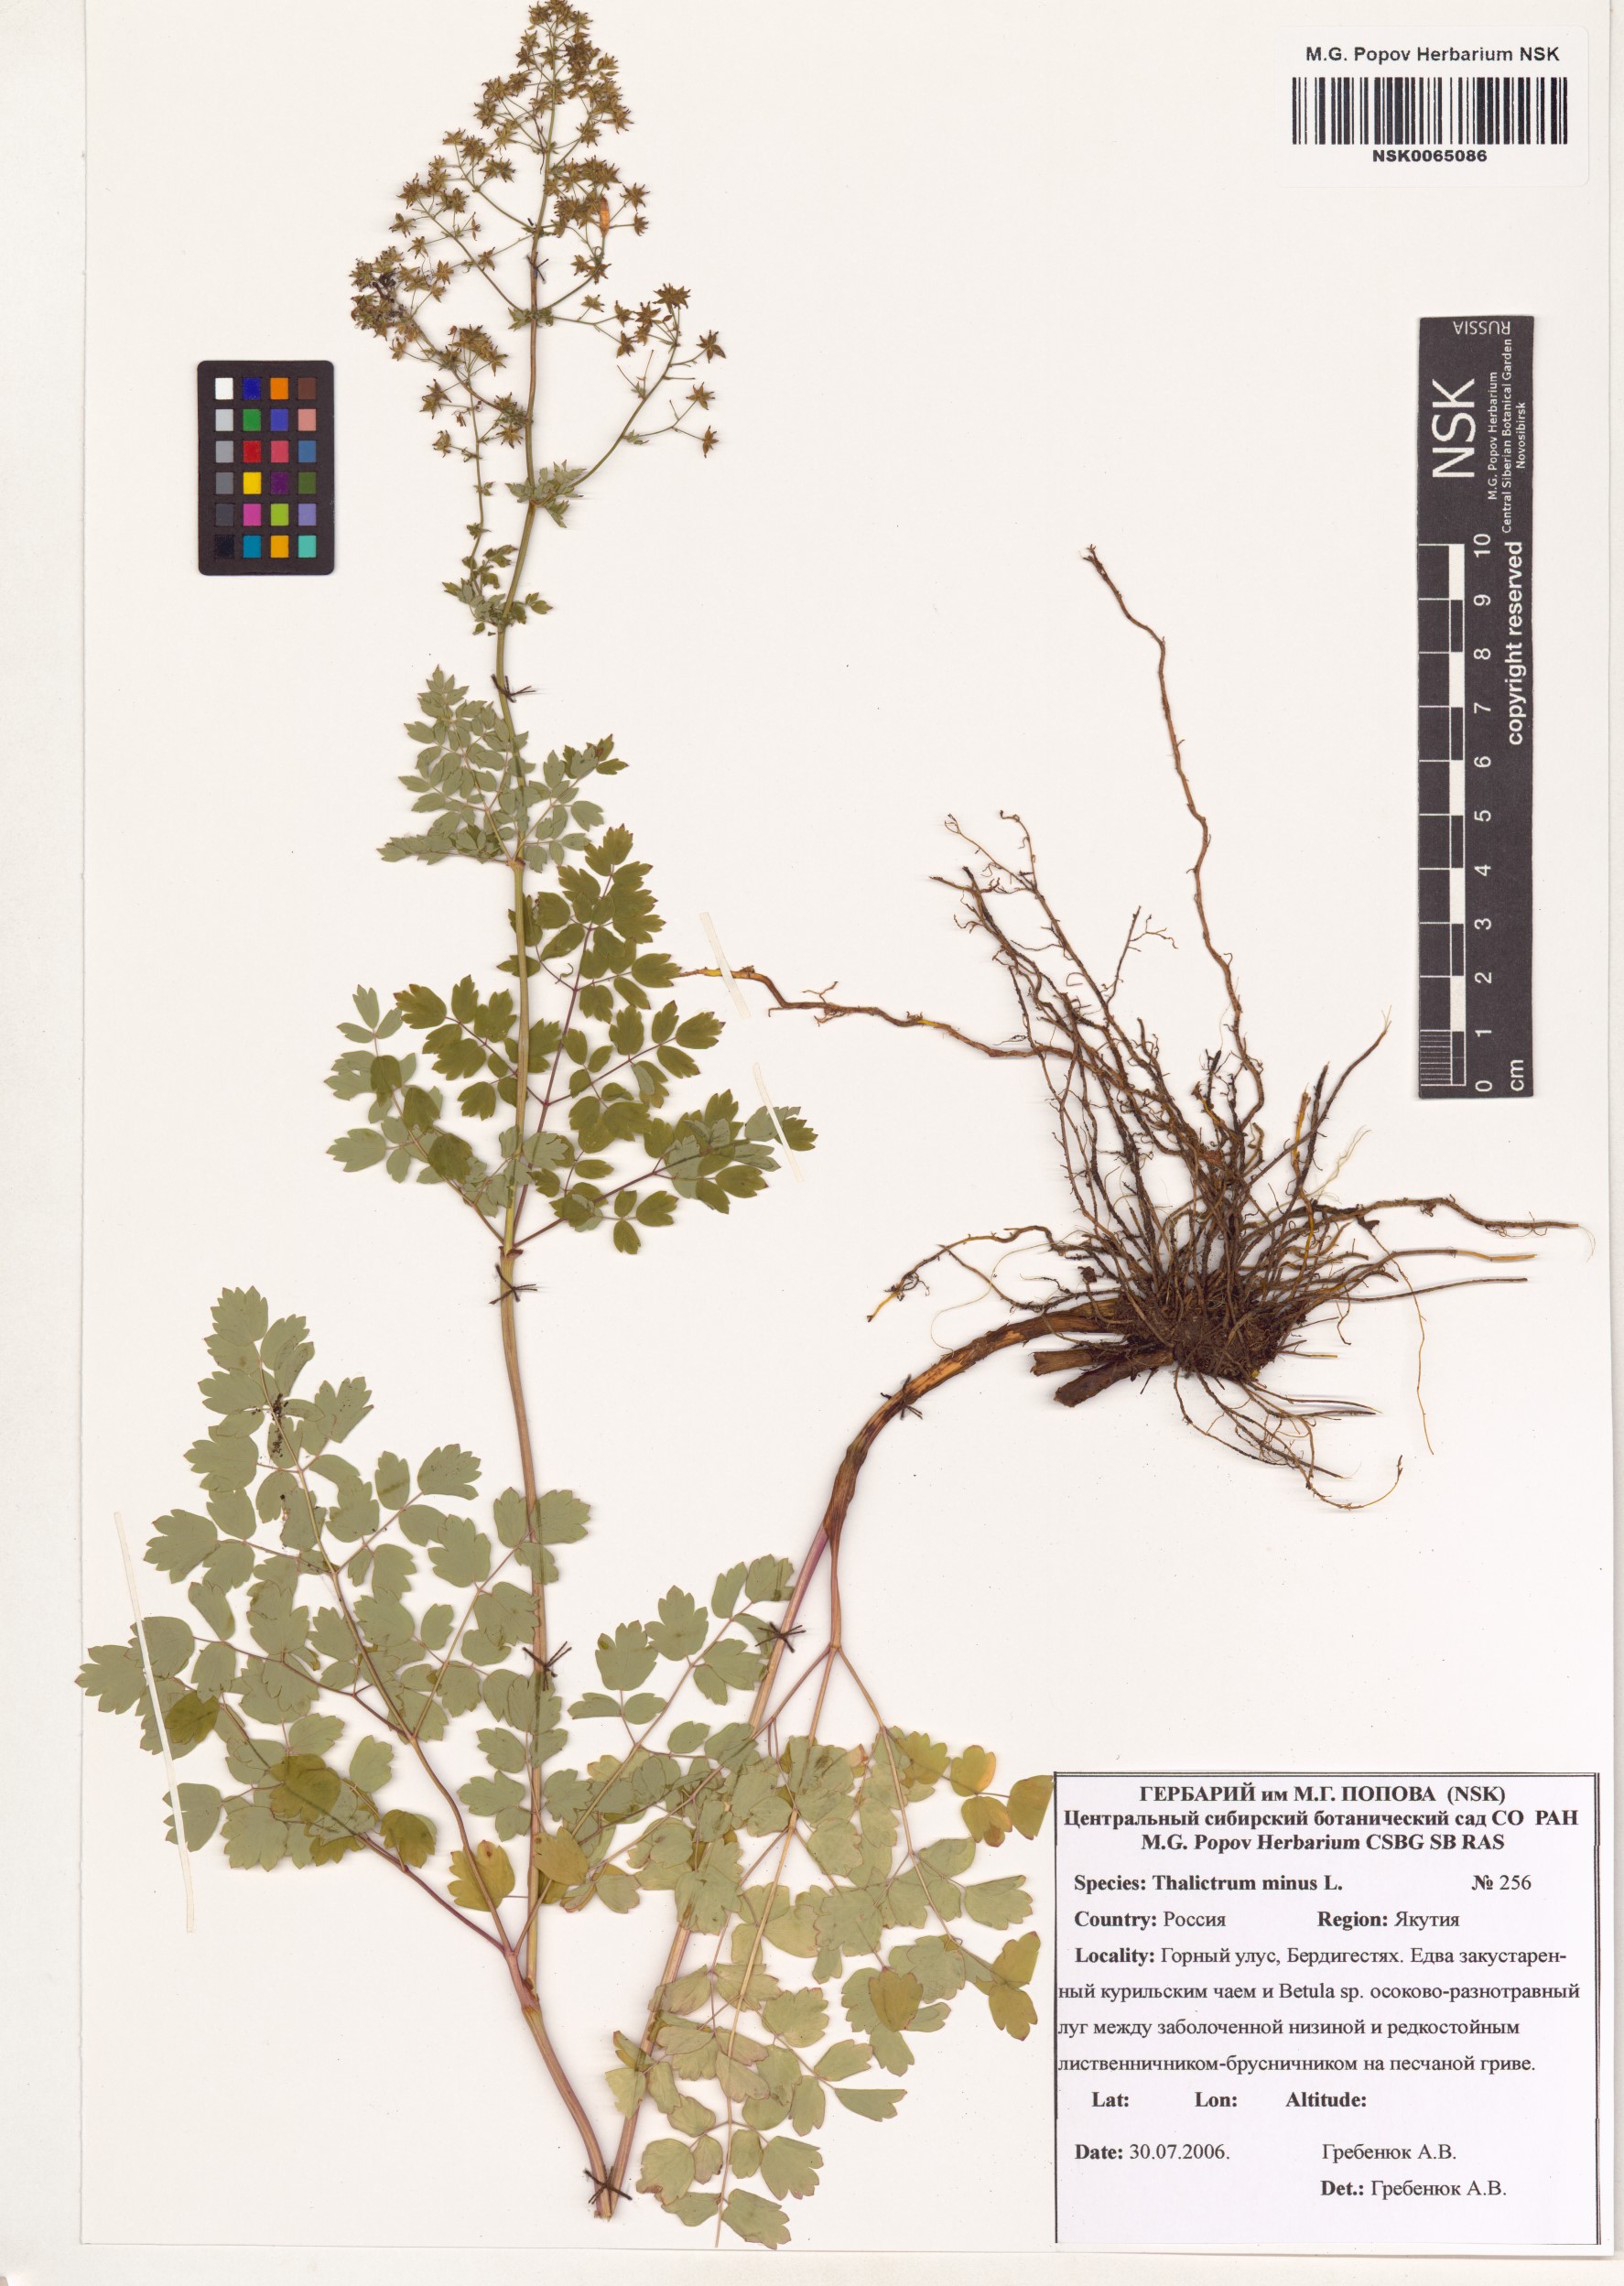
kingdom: Plantae
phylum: Tracheophyta
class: Magnoliopsida
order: Ranunculales
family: Ranunculaceae
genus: Thalictrum
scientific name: Thalictrum minus
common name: Lesser meadow-rue
